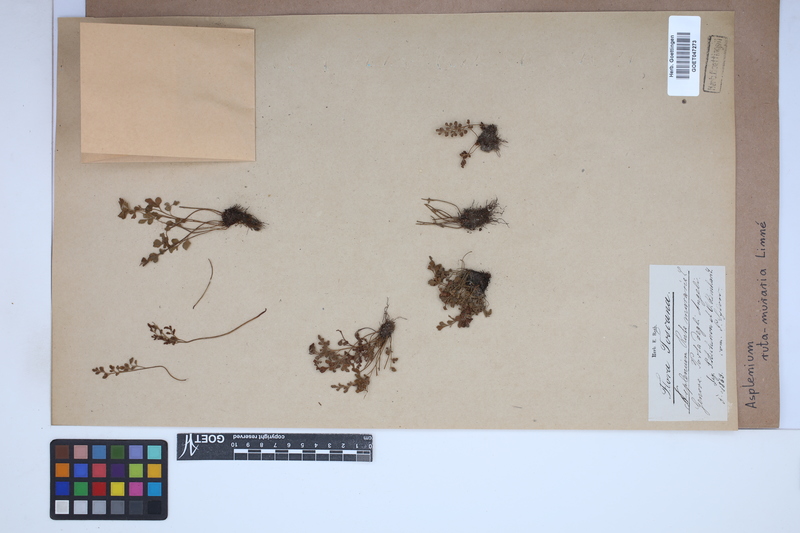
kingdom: Plantae
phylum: Tracheophyta
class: Polypodiopsida
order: Polypodiales
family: Aspleniaceae
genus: Asplenium
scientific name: Asplenium ruta-muraria
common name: Wall-rue
